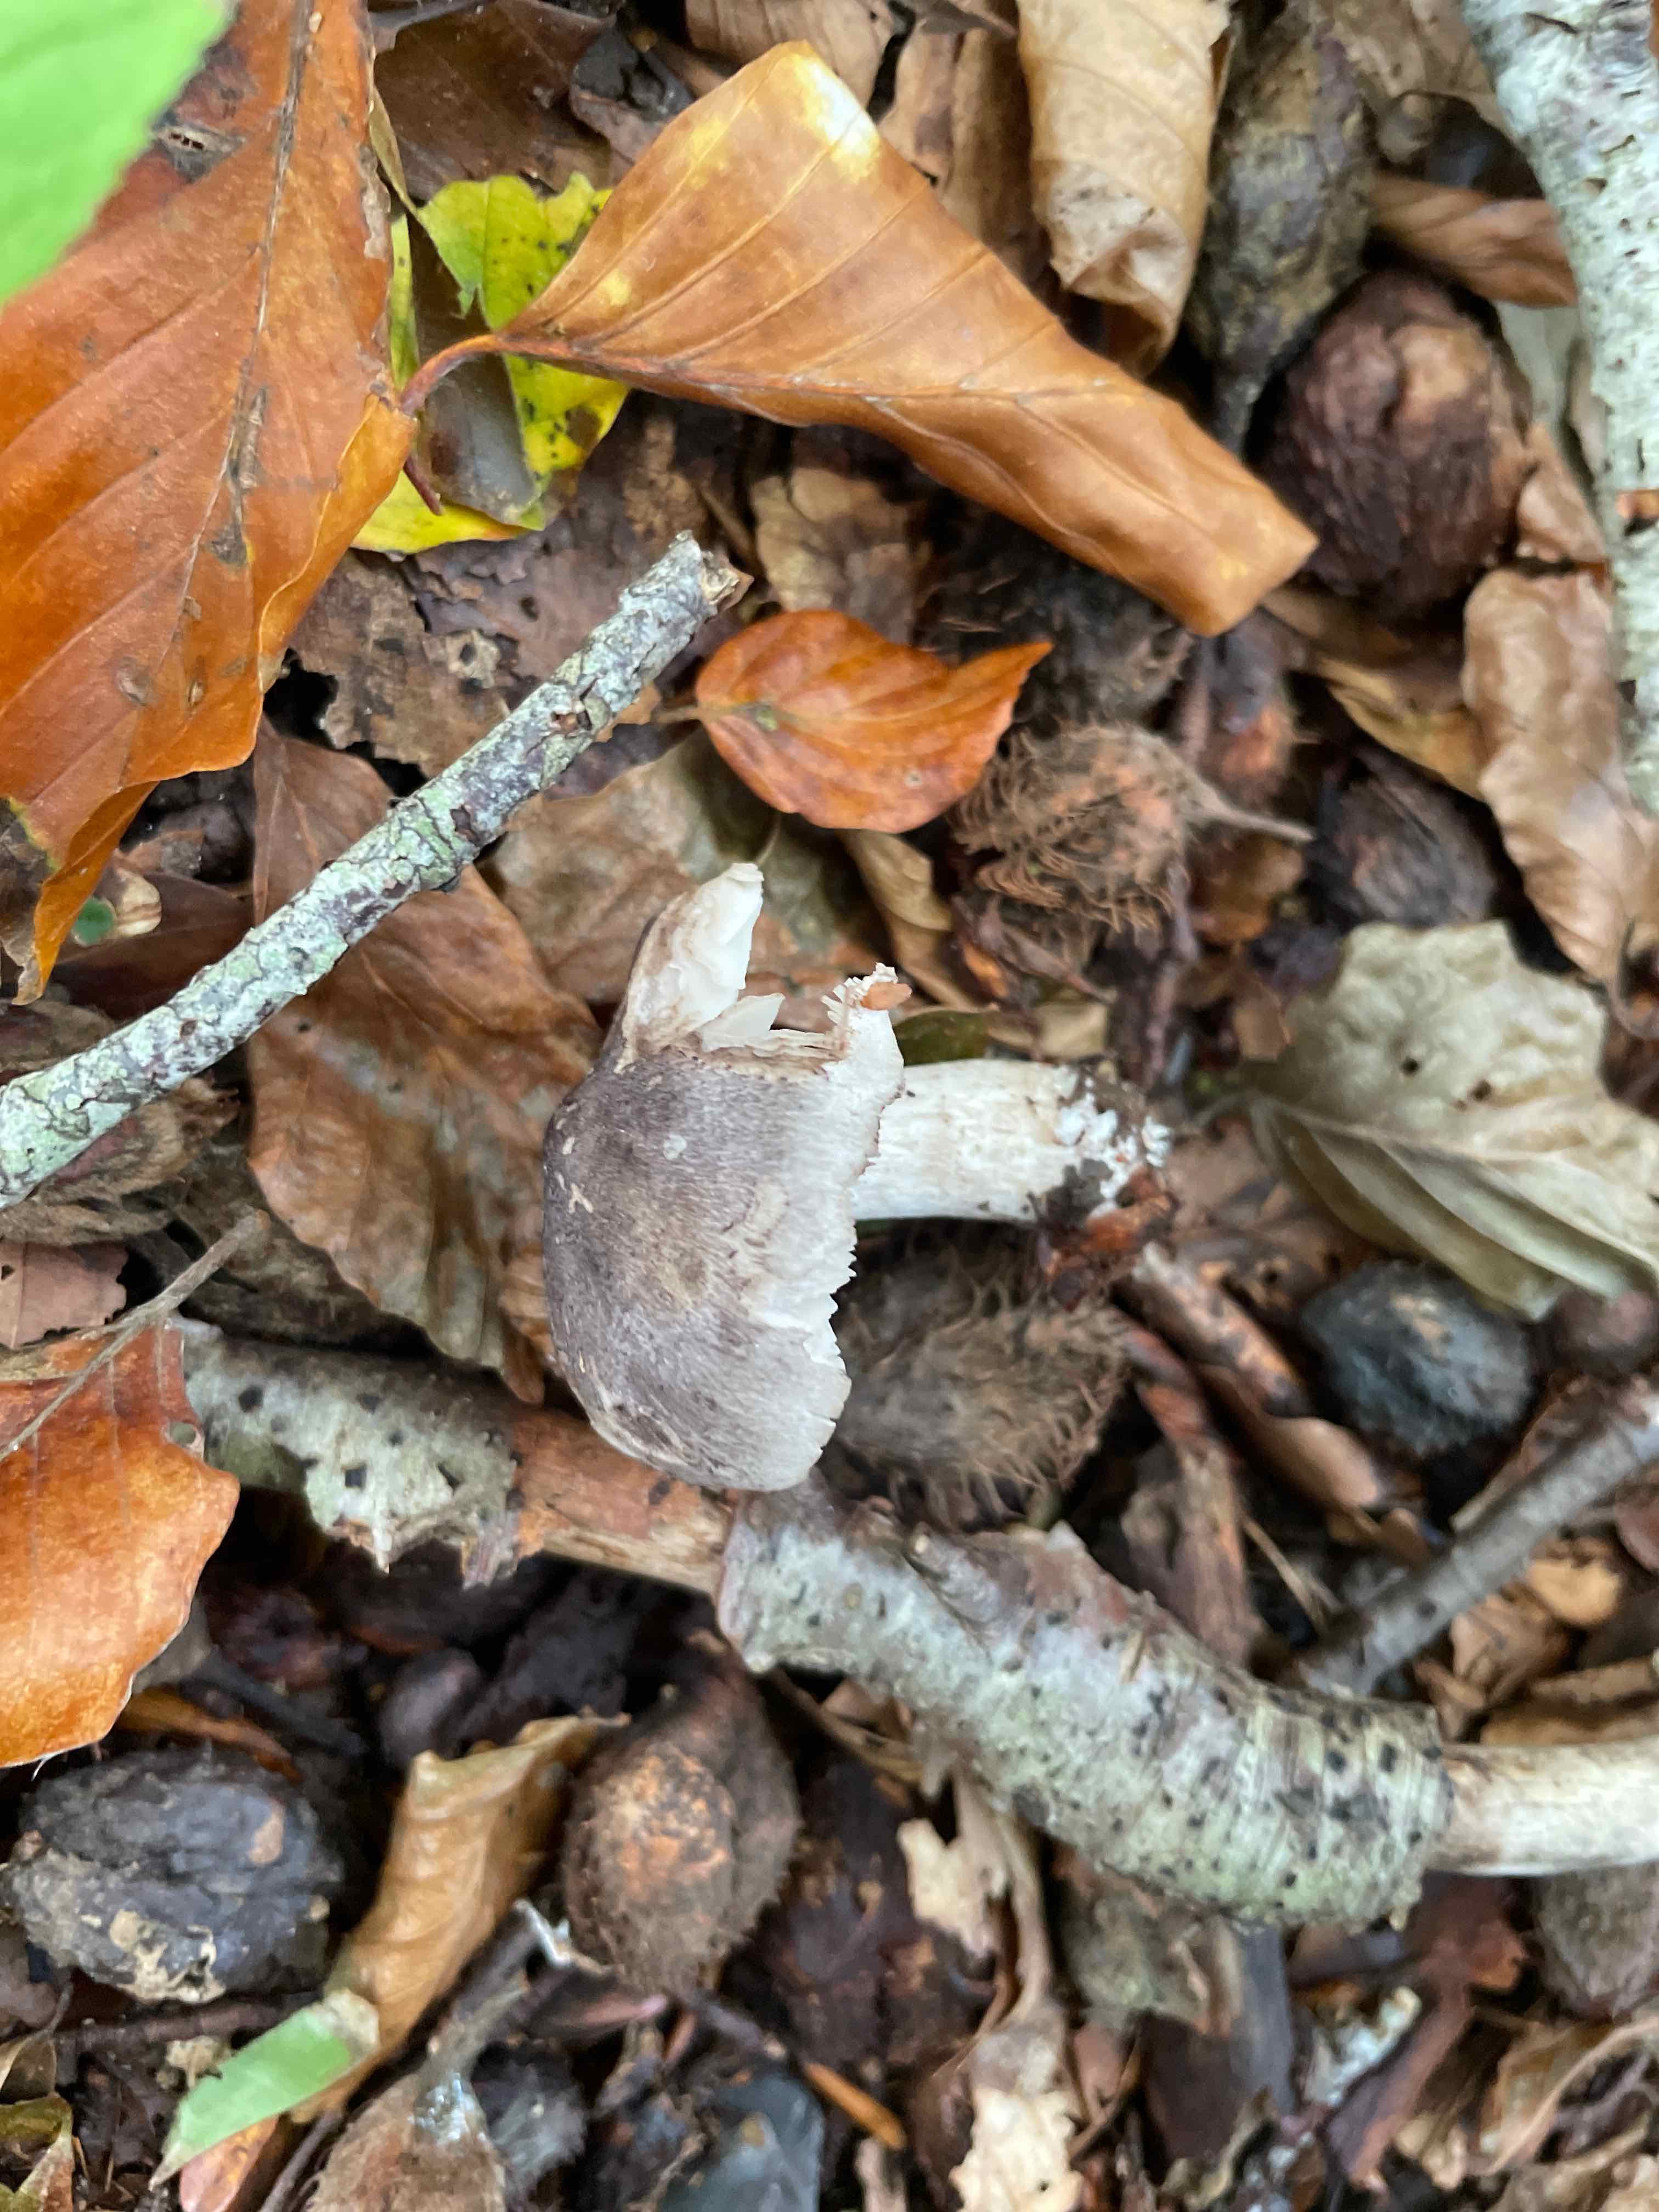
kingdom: Fungi
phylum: Basidiomycota
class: Agaricomycetes
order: Agaricales
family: Tricholomataceae
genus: Tricholoma
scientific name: Tricholoma sciodes
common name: stribet ridderhat
